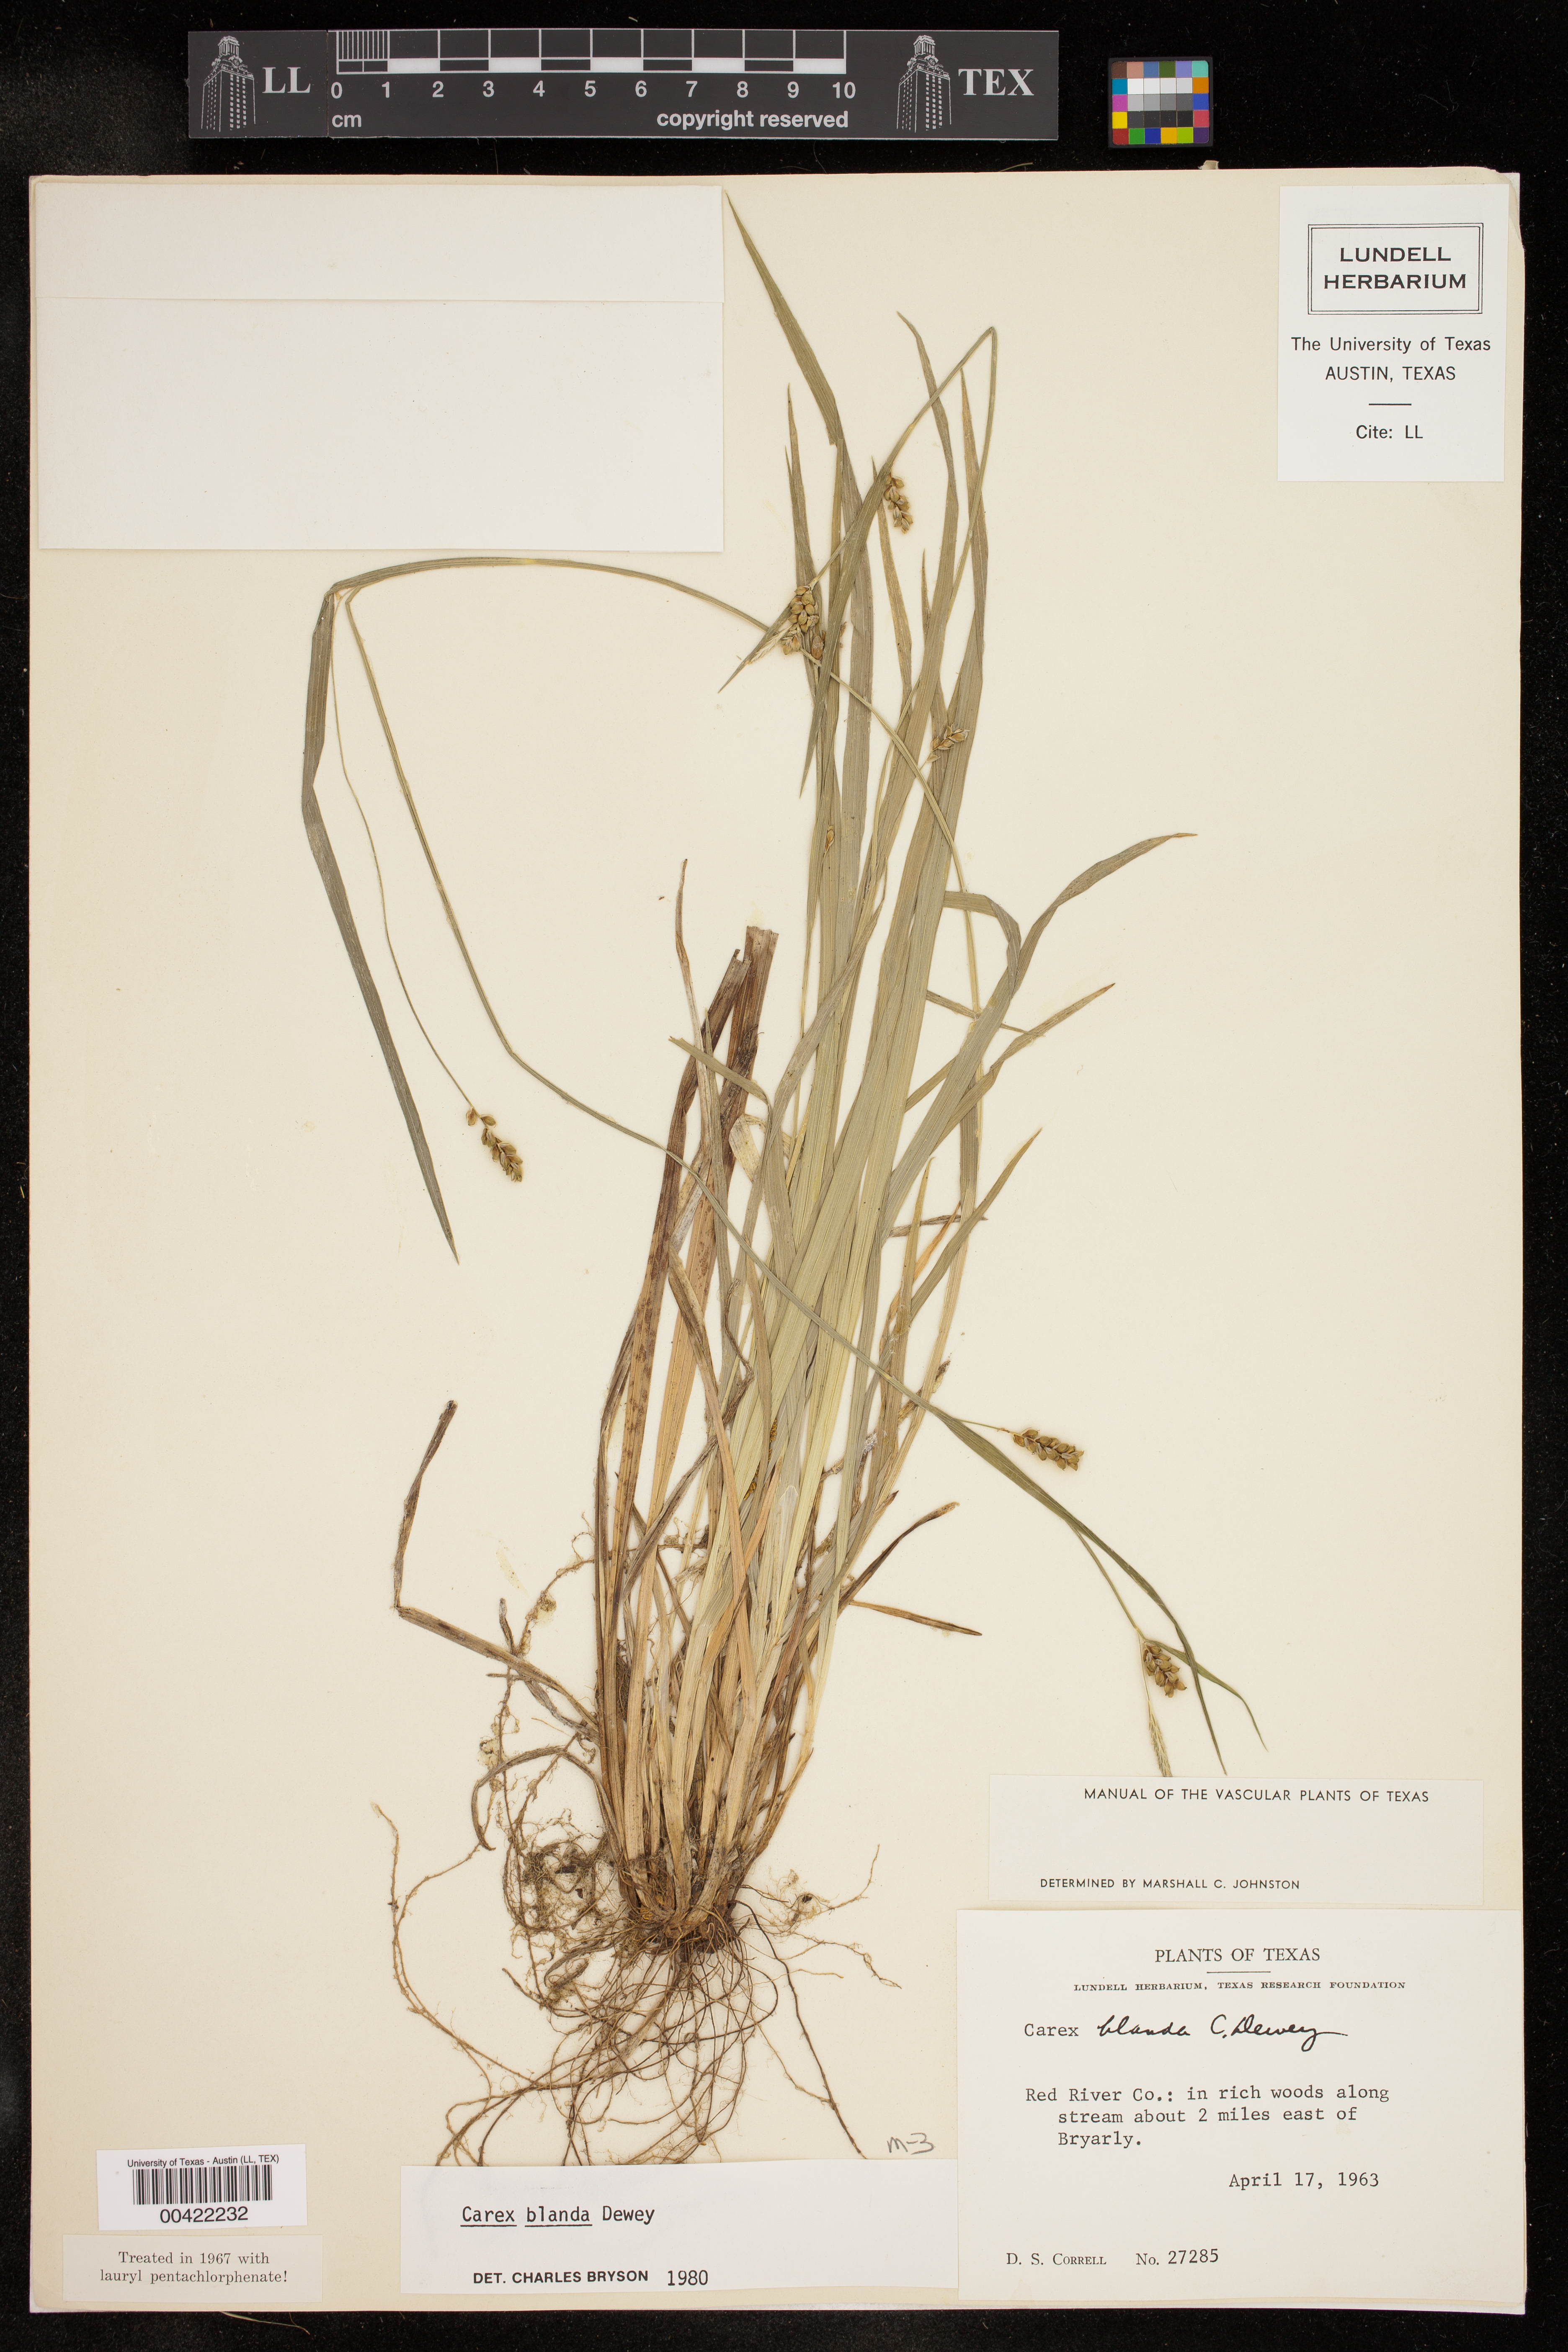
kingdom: Plantae
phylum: Tracheophyta
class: Liliopsida
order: Poales
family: Cyperaceae
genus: Carex
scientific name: Carex blanda
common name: Bland sedge
